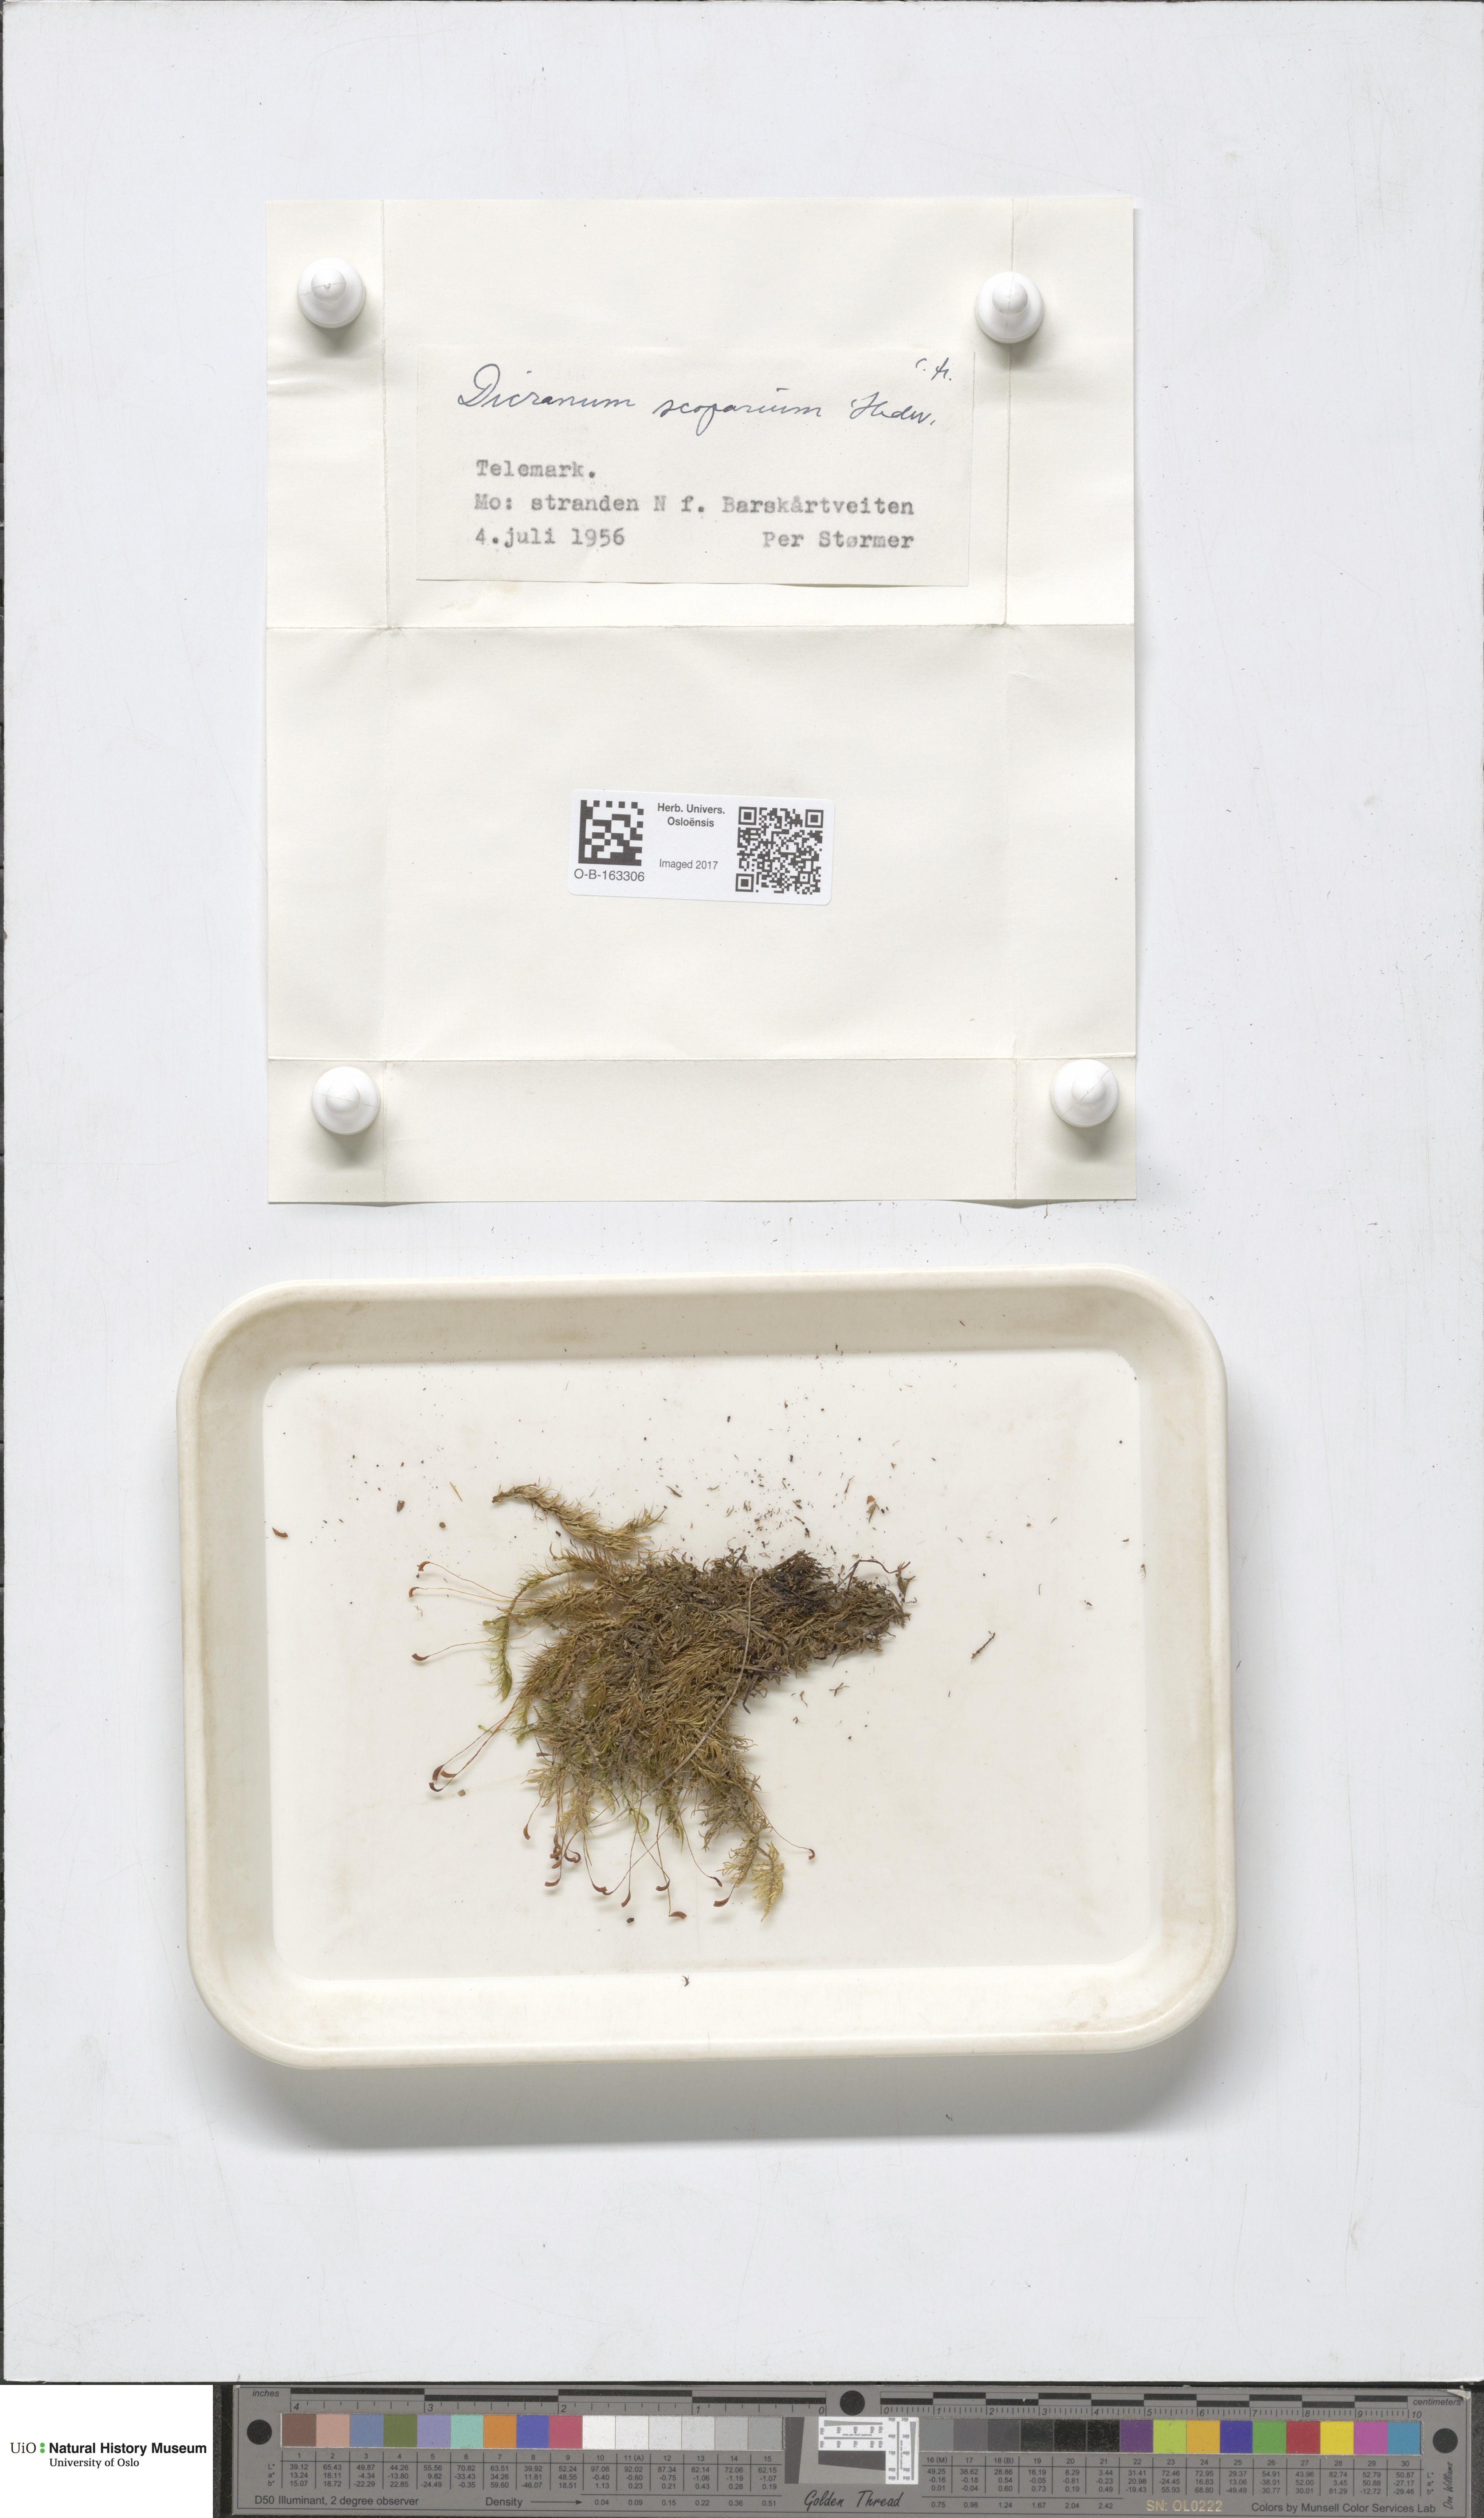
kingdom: Plantae
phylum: Bryophyta
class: Bryopsida
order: Dicranales
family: Dicranaceae
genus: Dicranum
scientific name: Dicranum scoparium
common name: Broom fork-moss
